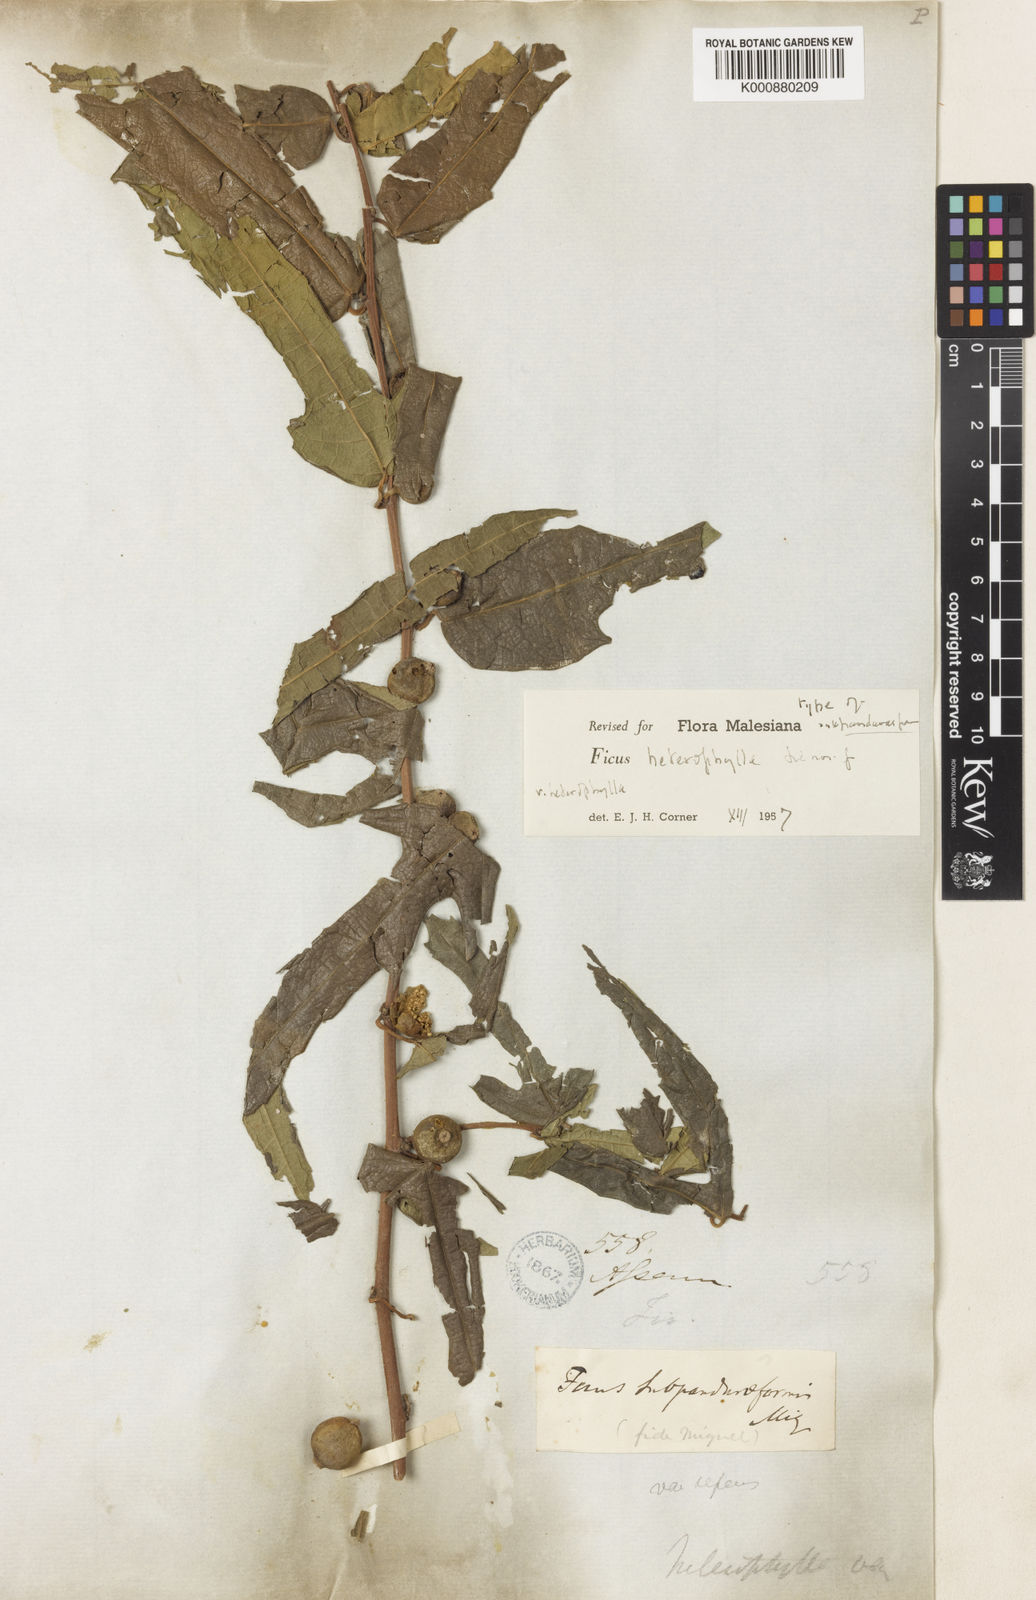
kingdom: Plantae
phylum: Tracheophyta
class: Magnoliopsida
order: Rosales
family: Moraceae
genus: Ficus
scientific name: Ficus heterophylla
